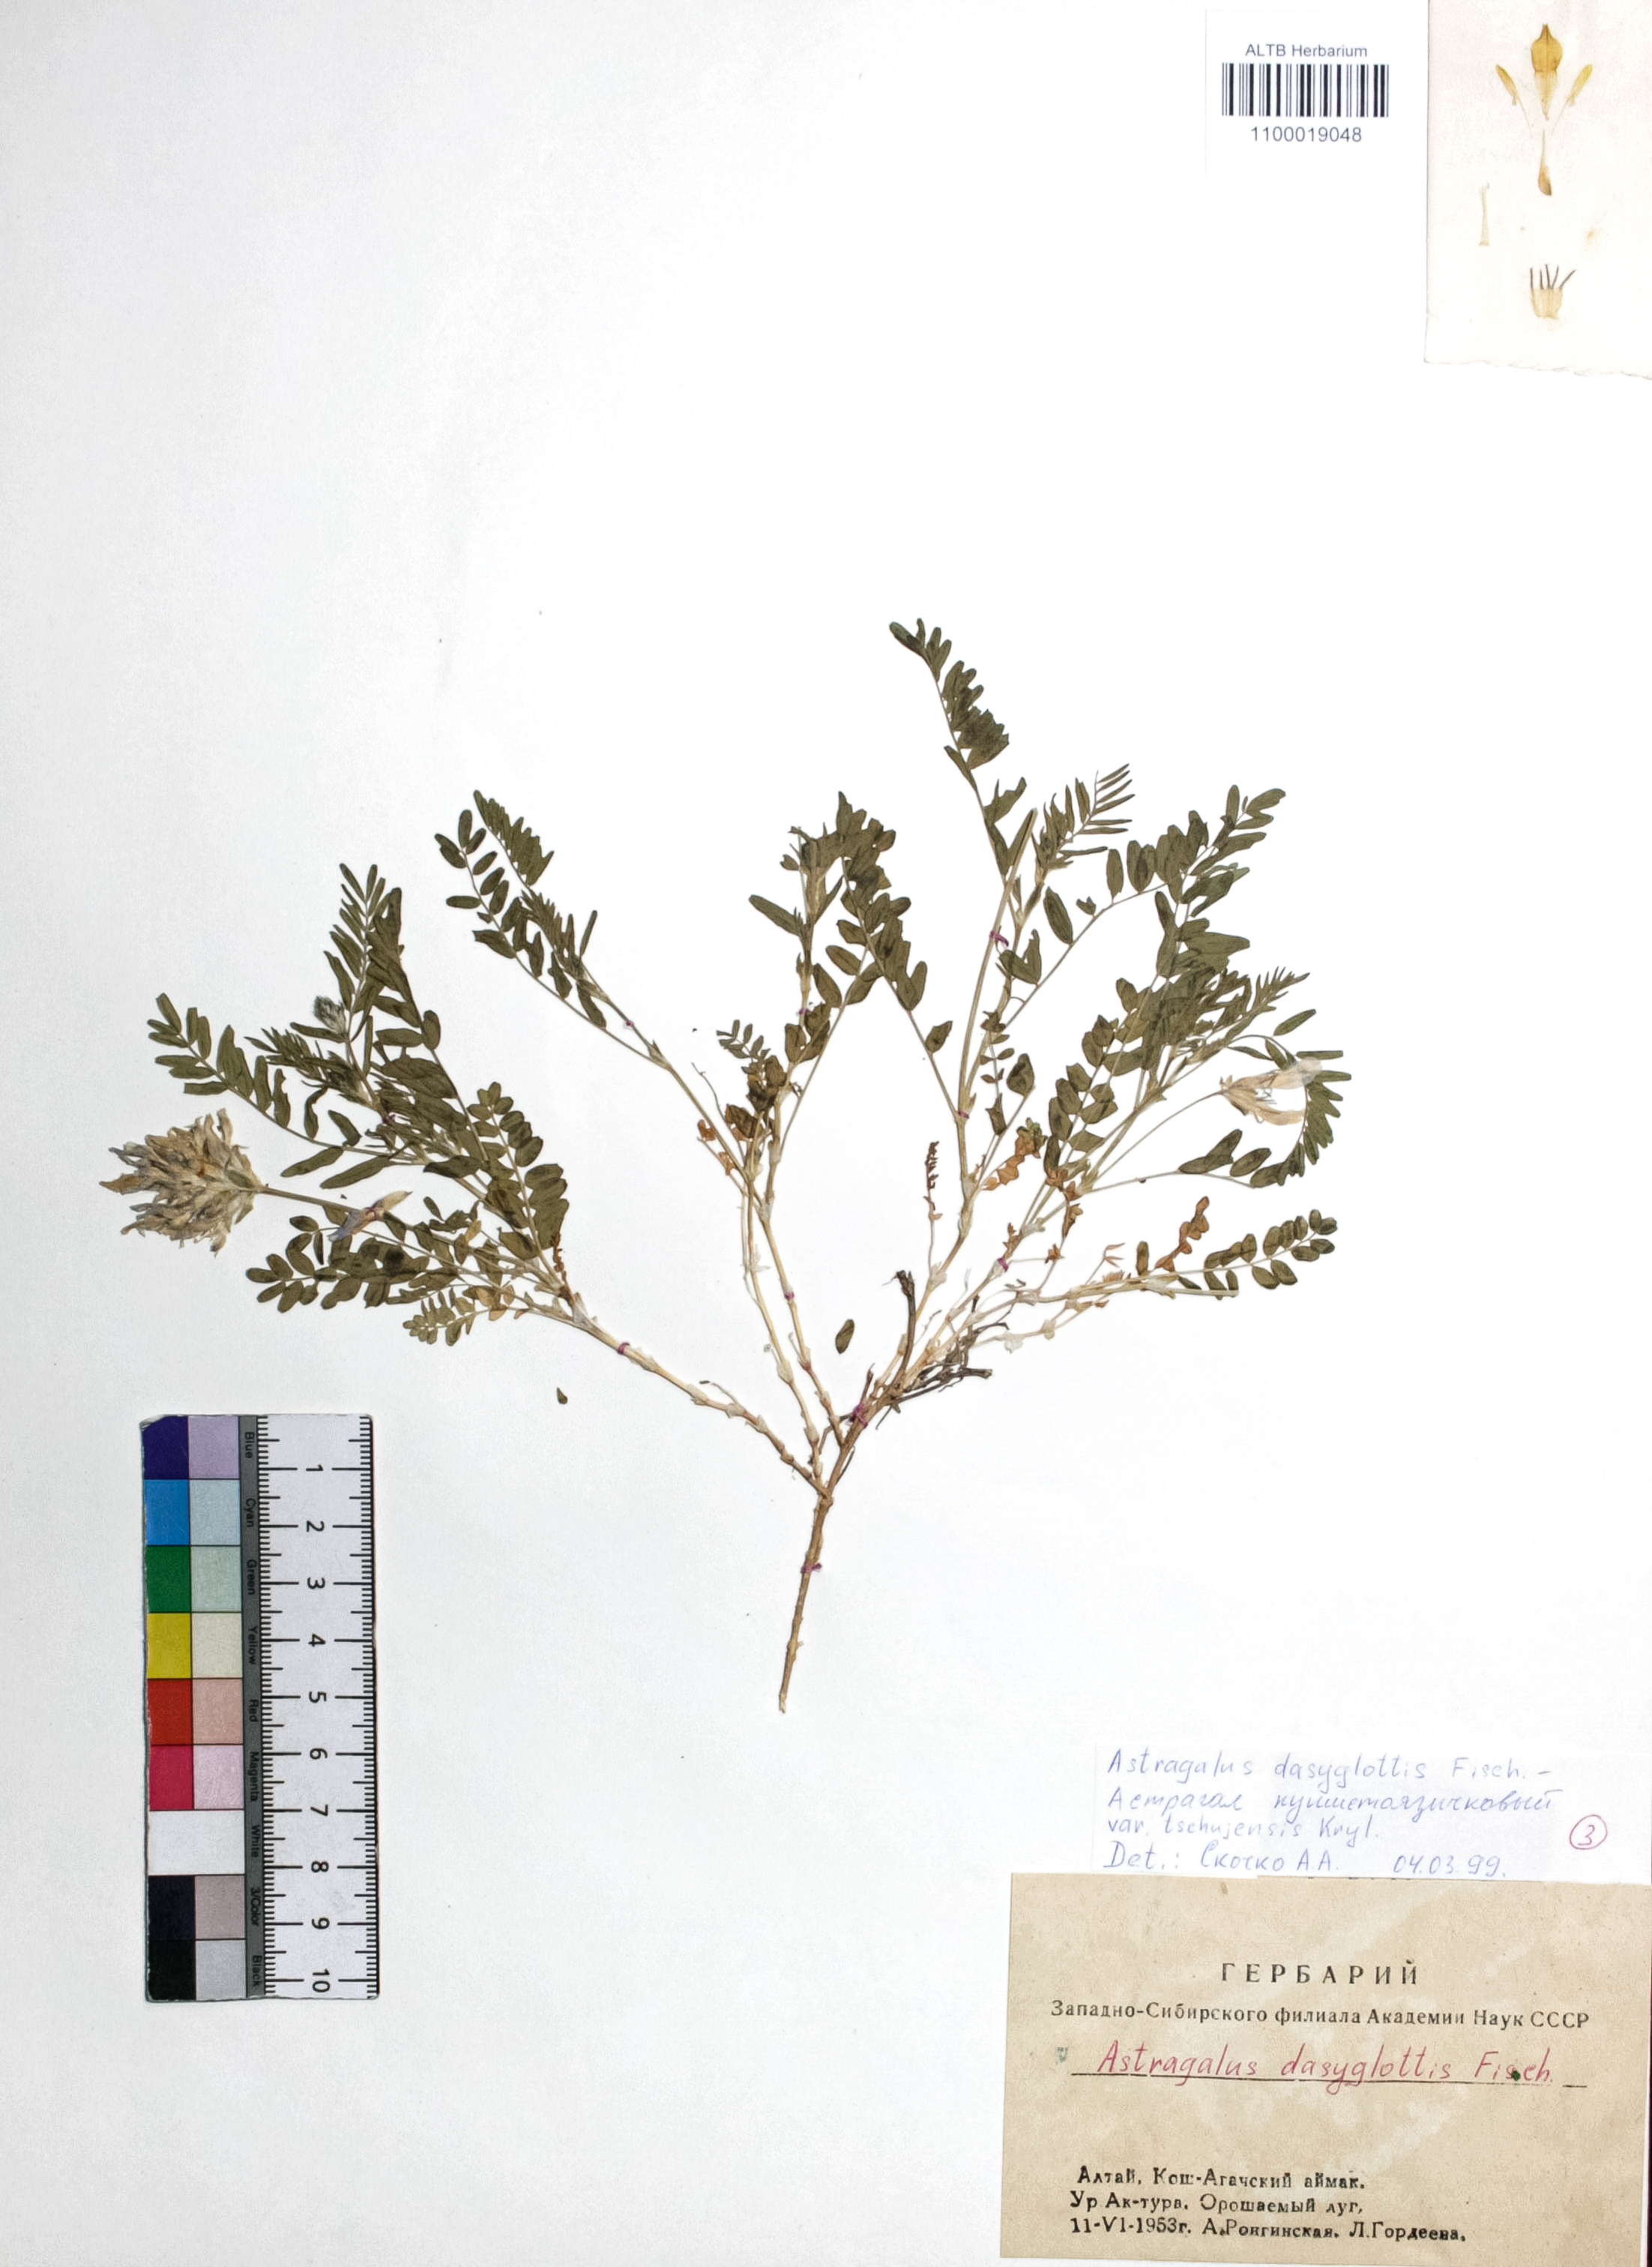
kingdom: Plantae
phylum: Tracheophyta
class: Magnoliopsida
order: Fabales
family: Fabaceae
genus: Astragalus
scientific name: Astragalus agrestis
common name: Field milk-vetch
